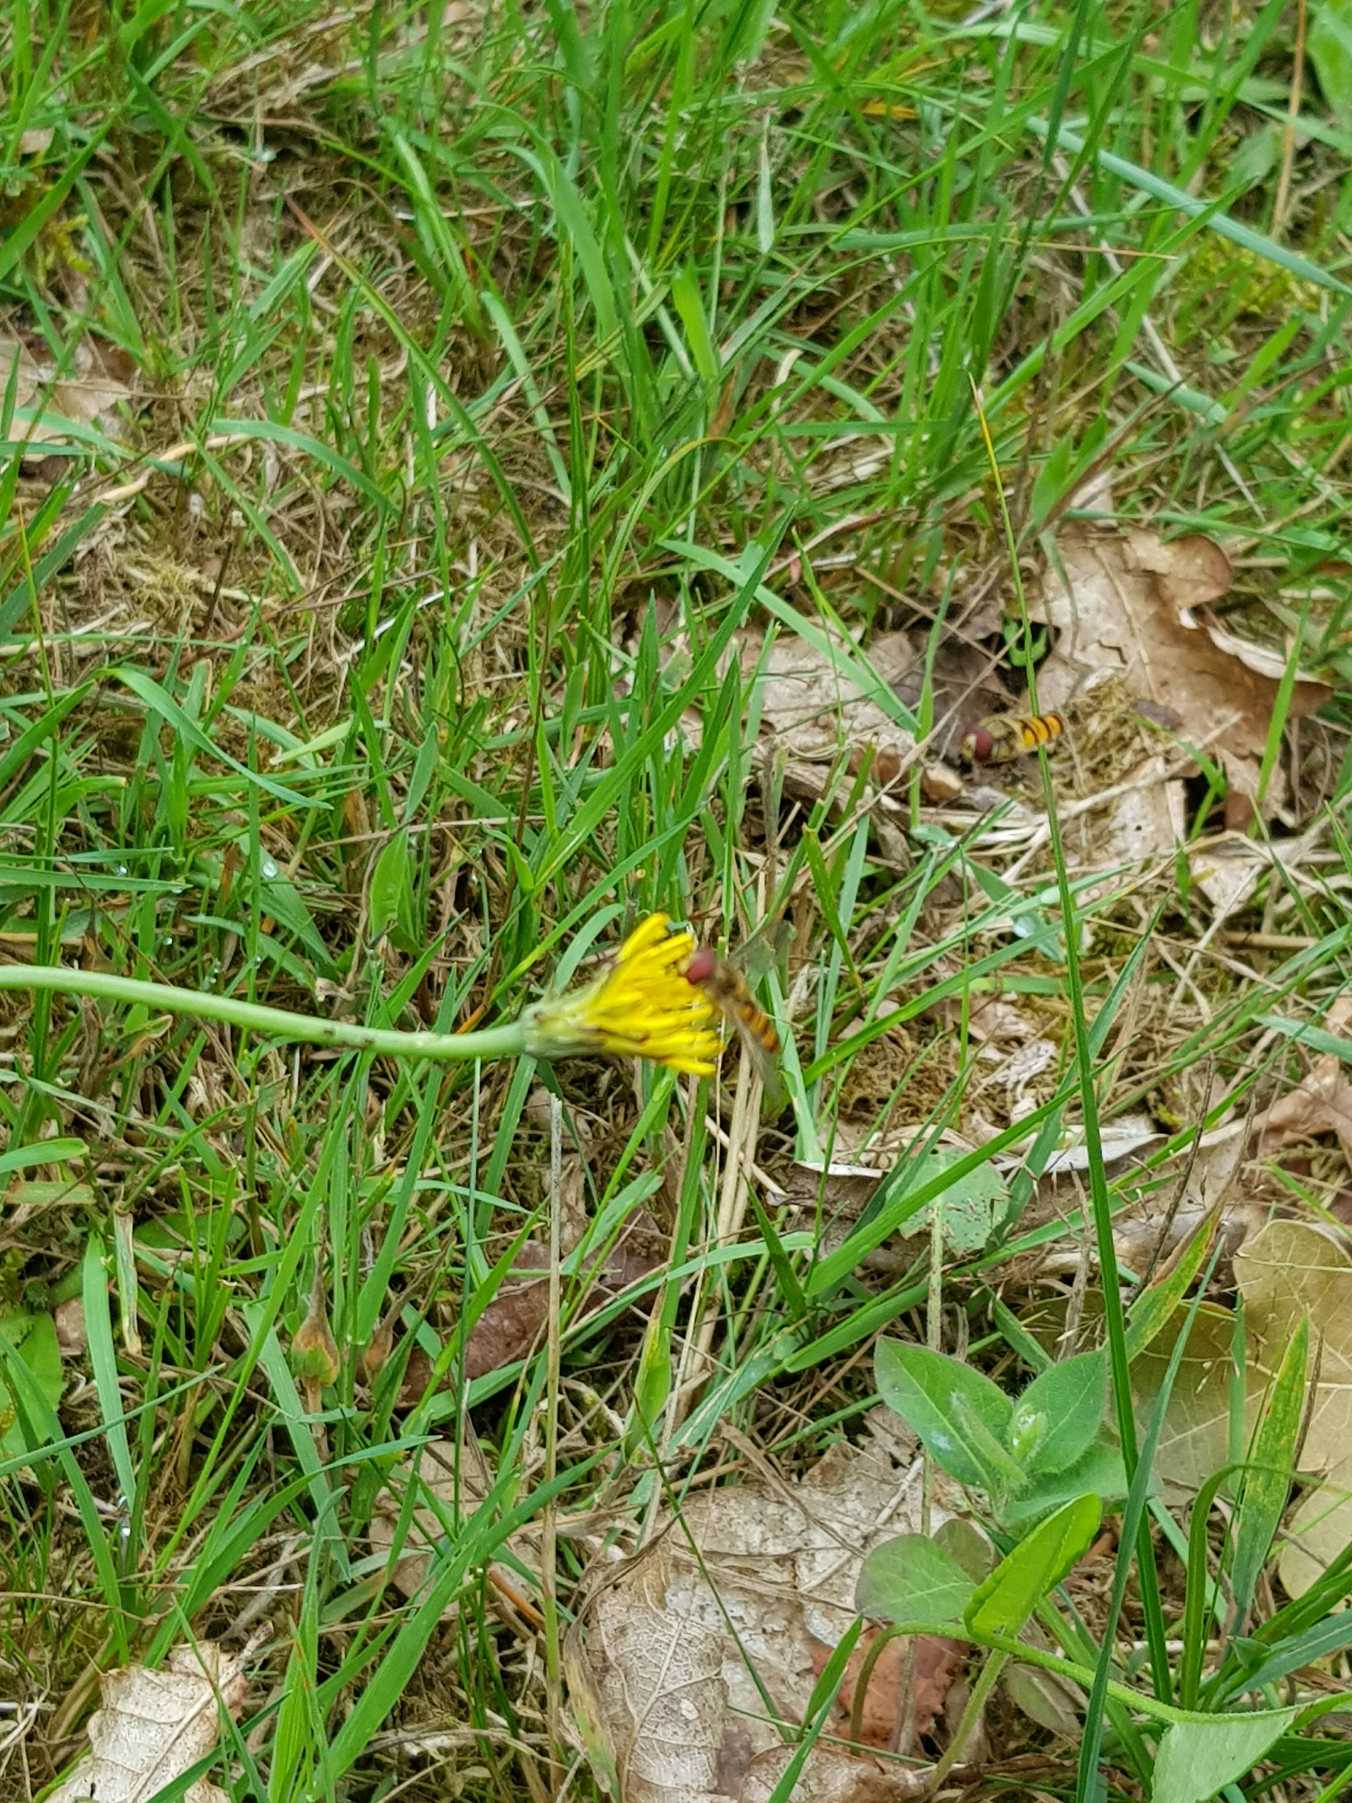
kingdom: Animalia
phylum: Arthropoda
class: Insecta
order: Diptera
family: Syrphidae
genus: Episyrphus
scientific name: Episyrphus balteatus
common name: Dobbeltbåndet svirreflue
